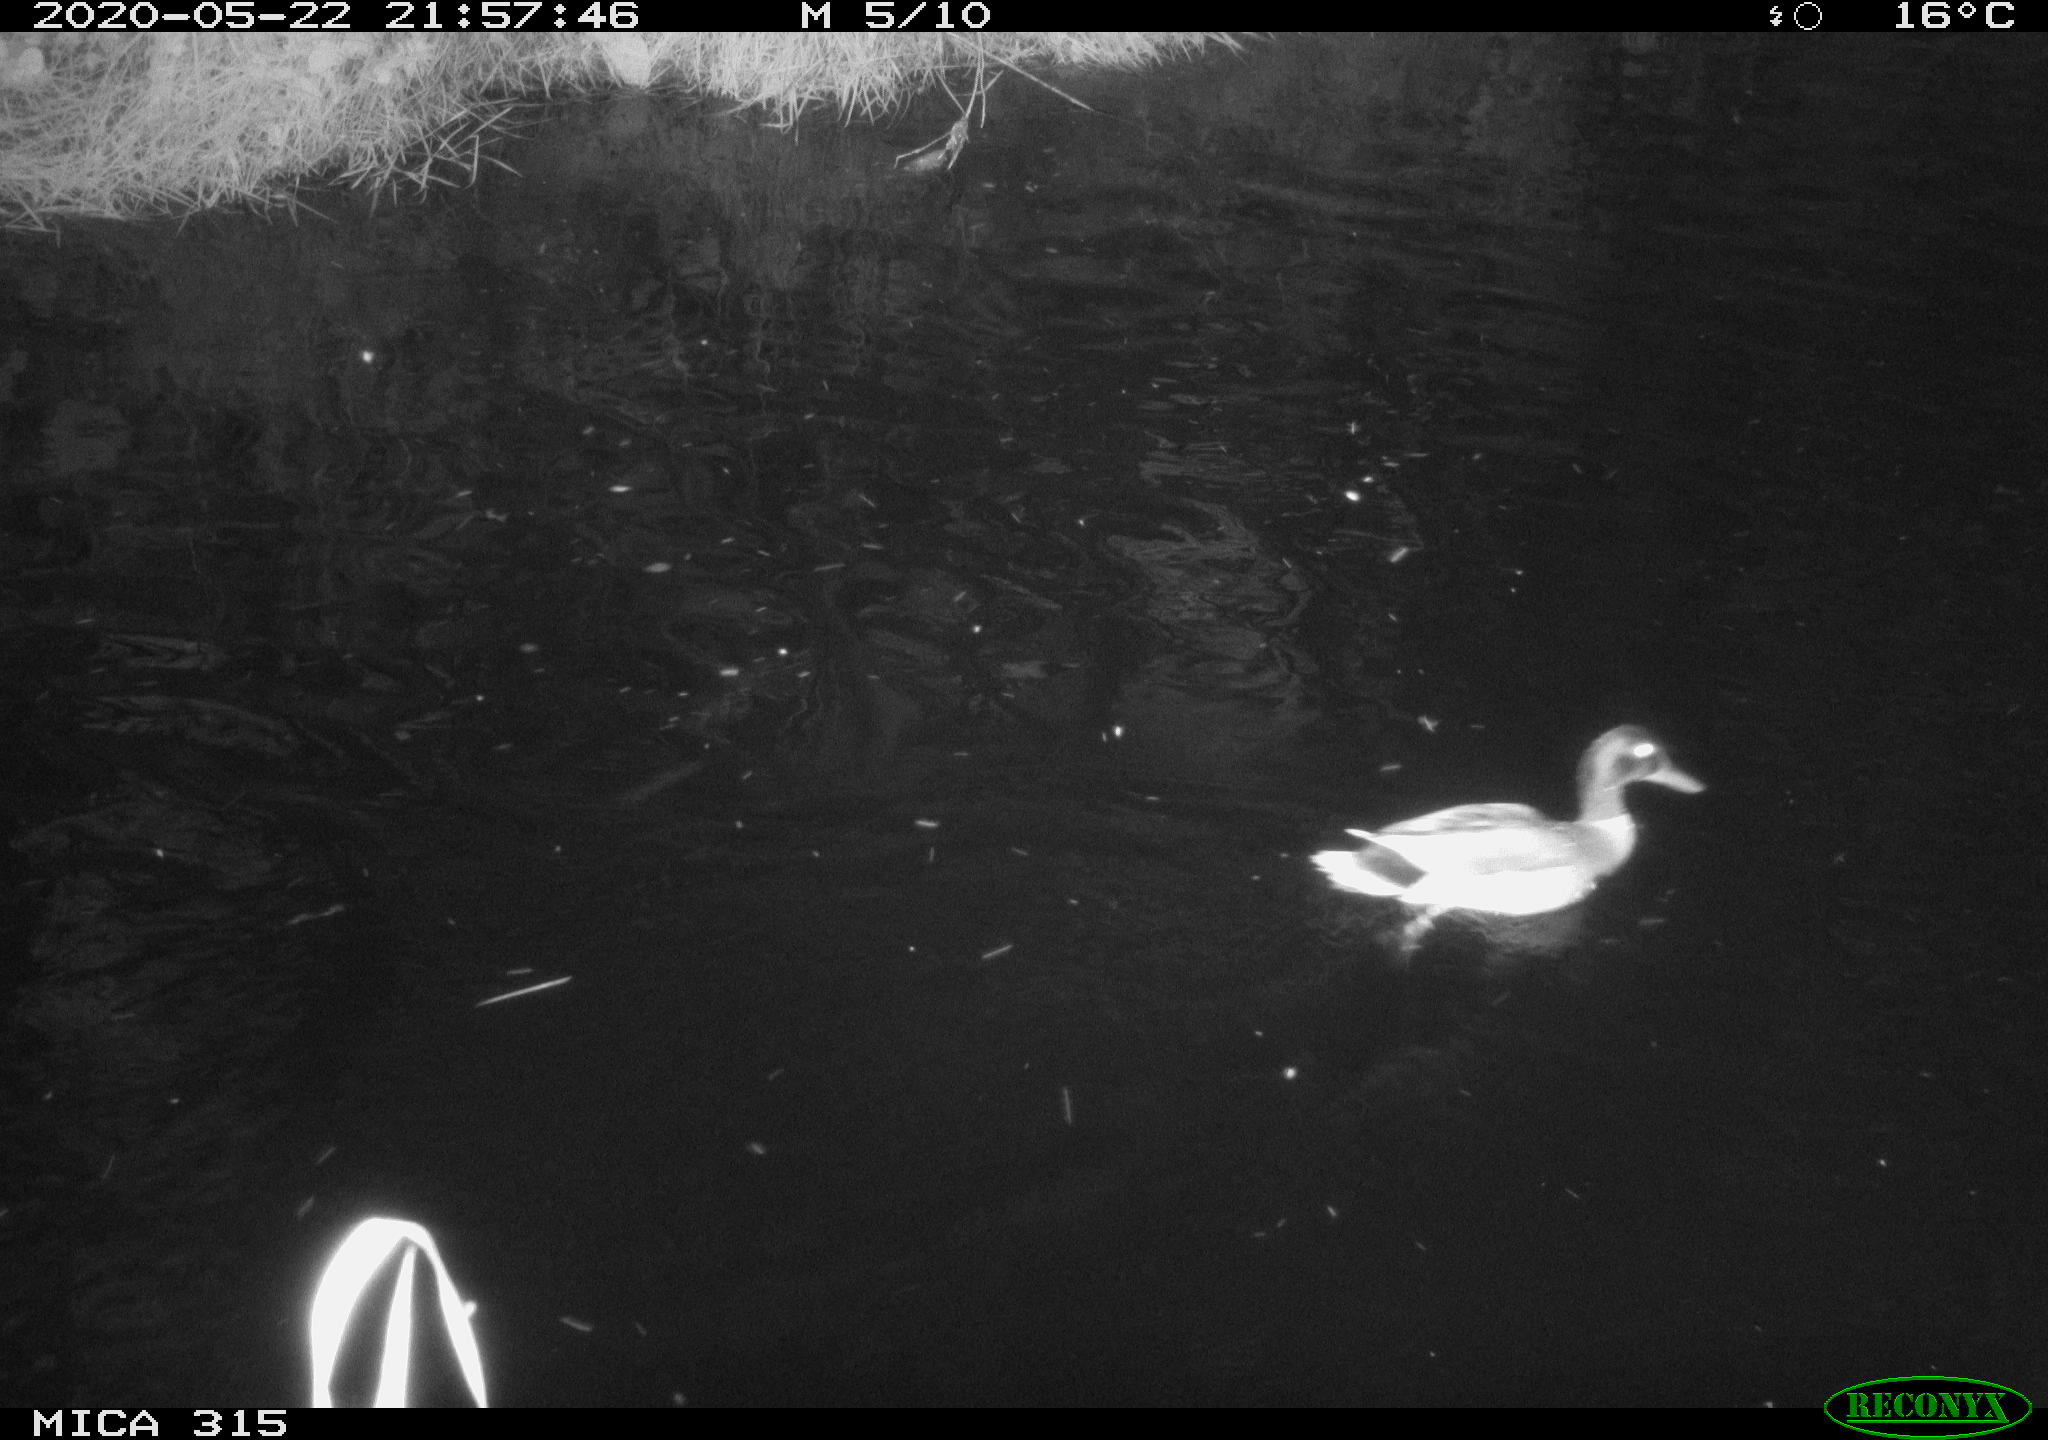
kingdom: Animalia
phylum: Chordata
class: Aves
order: Anseriformes
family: Anatidae
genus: Anas
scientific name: Anas platyrhynchos
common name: Mallard
